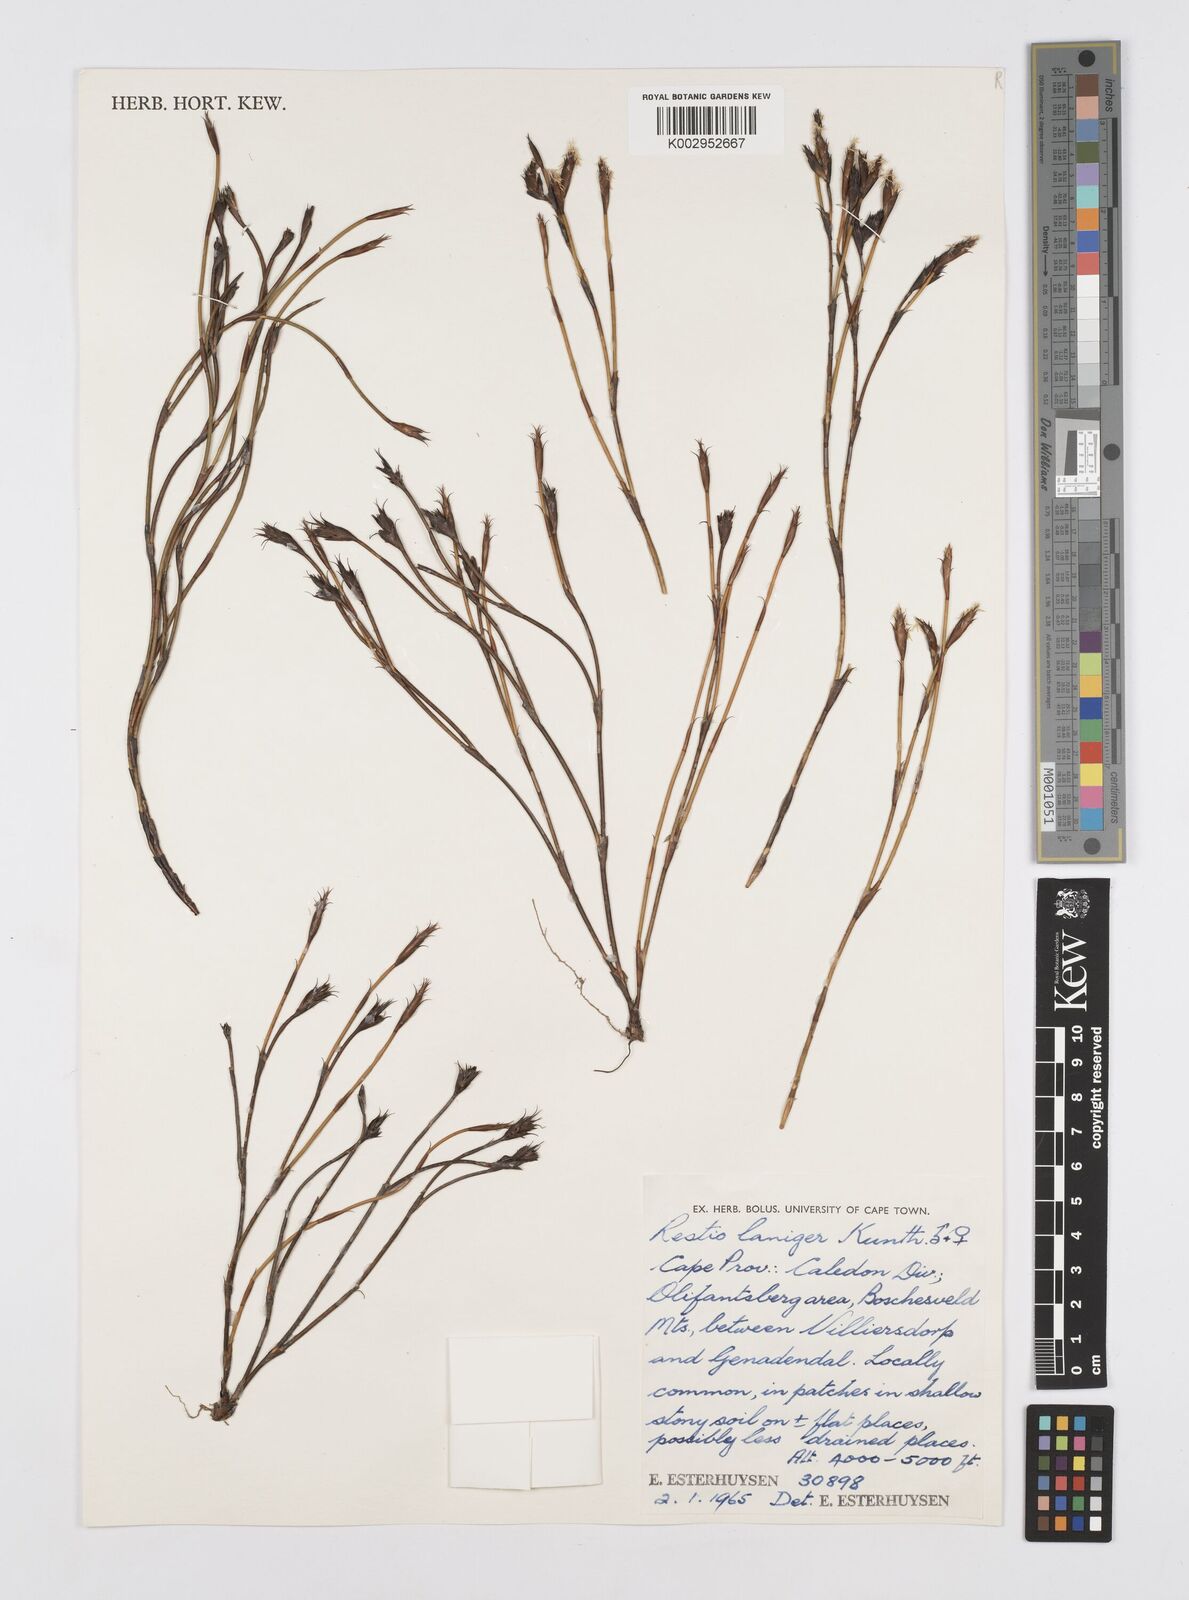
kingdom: Plantae
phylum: Tracheophyta
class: Liliopsida
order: Poales
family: Restionaceae
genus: Restio
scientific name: Restio laniger
